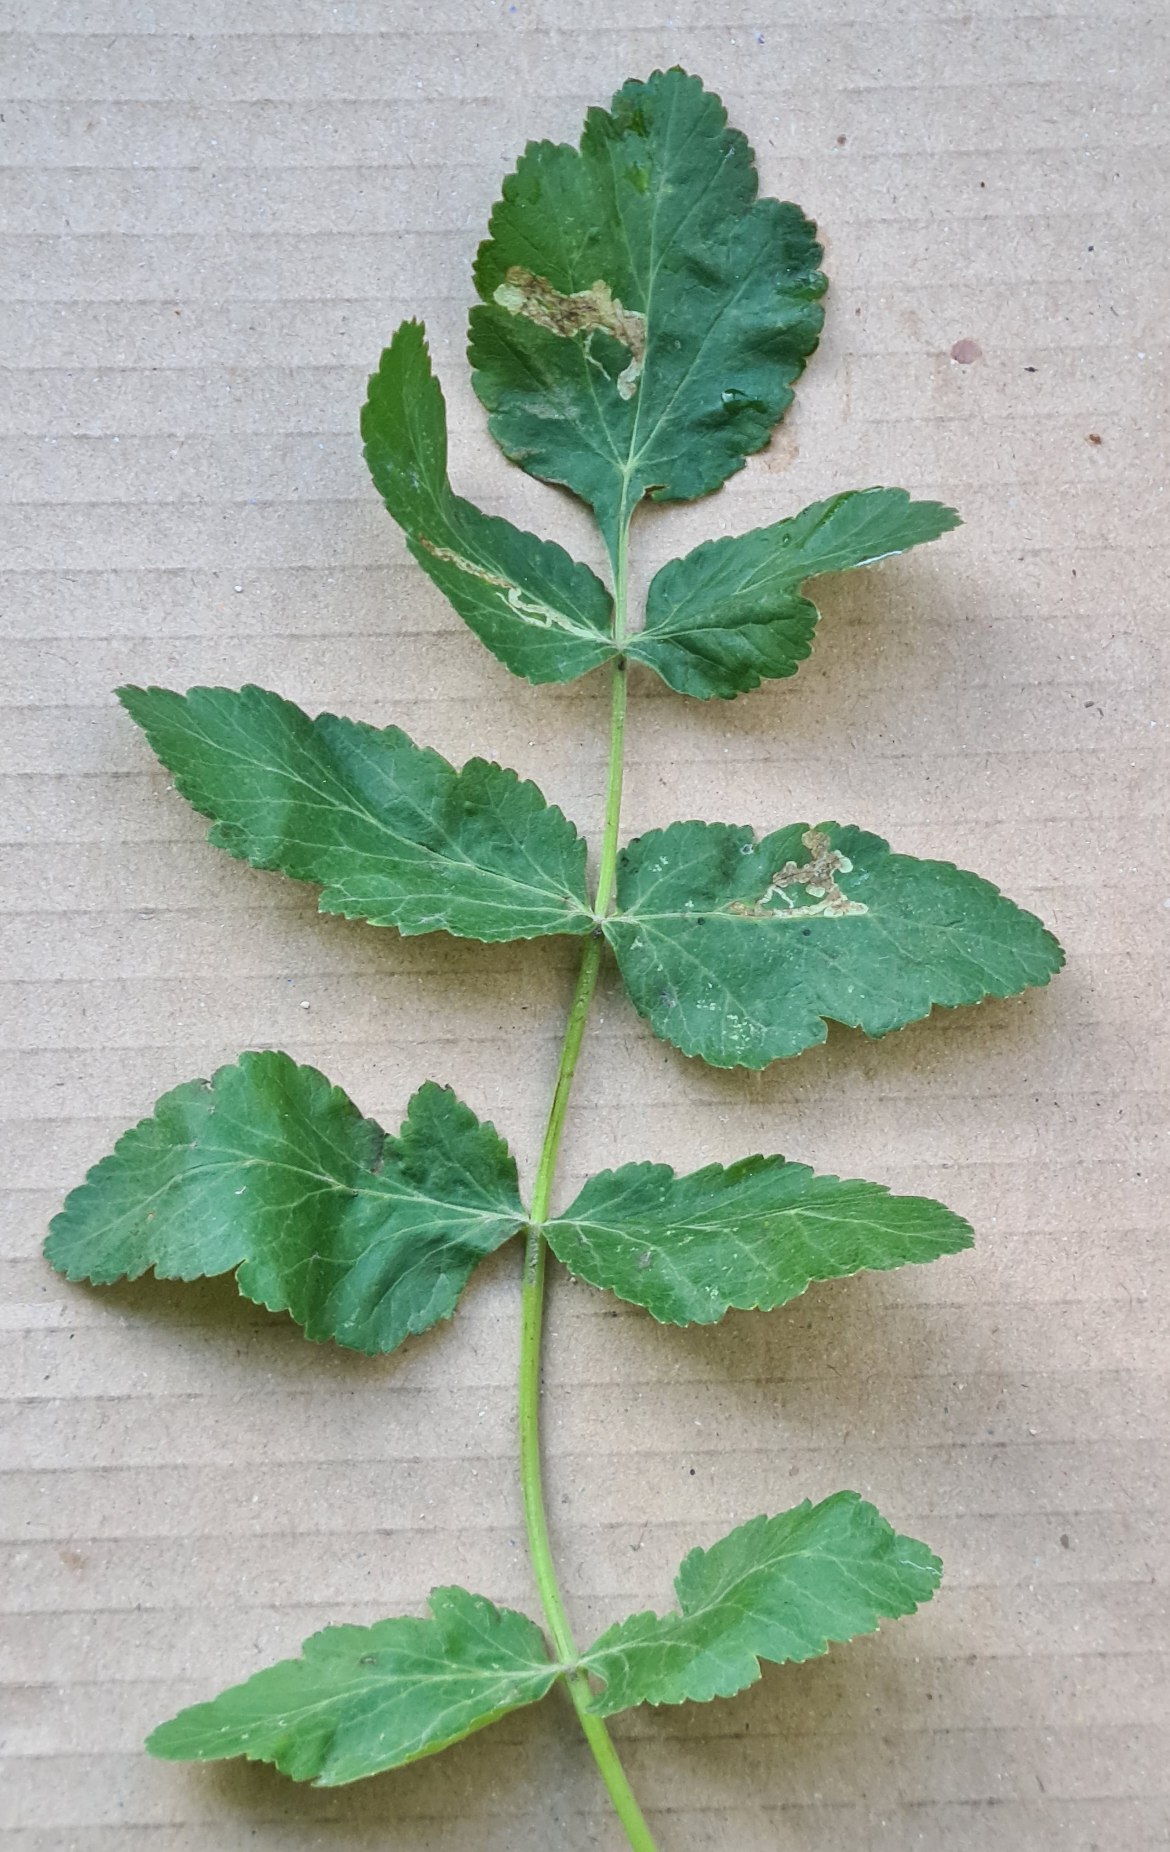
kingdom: Plantae
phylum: Tracheophyta
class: Magnoliopsida
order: Apiales
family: Apiaceae
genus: Pastinaca
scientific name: Pastinaca sativa
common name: Pastinak
